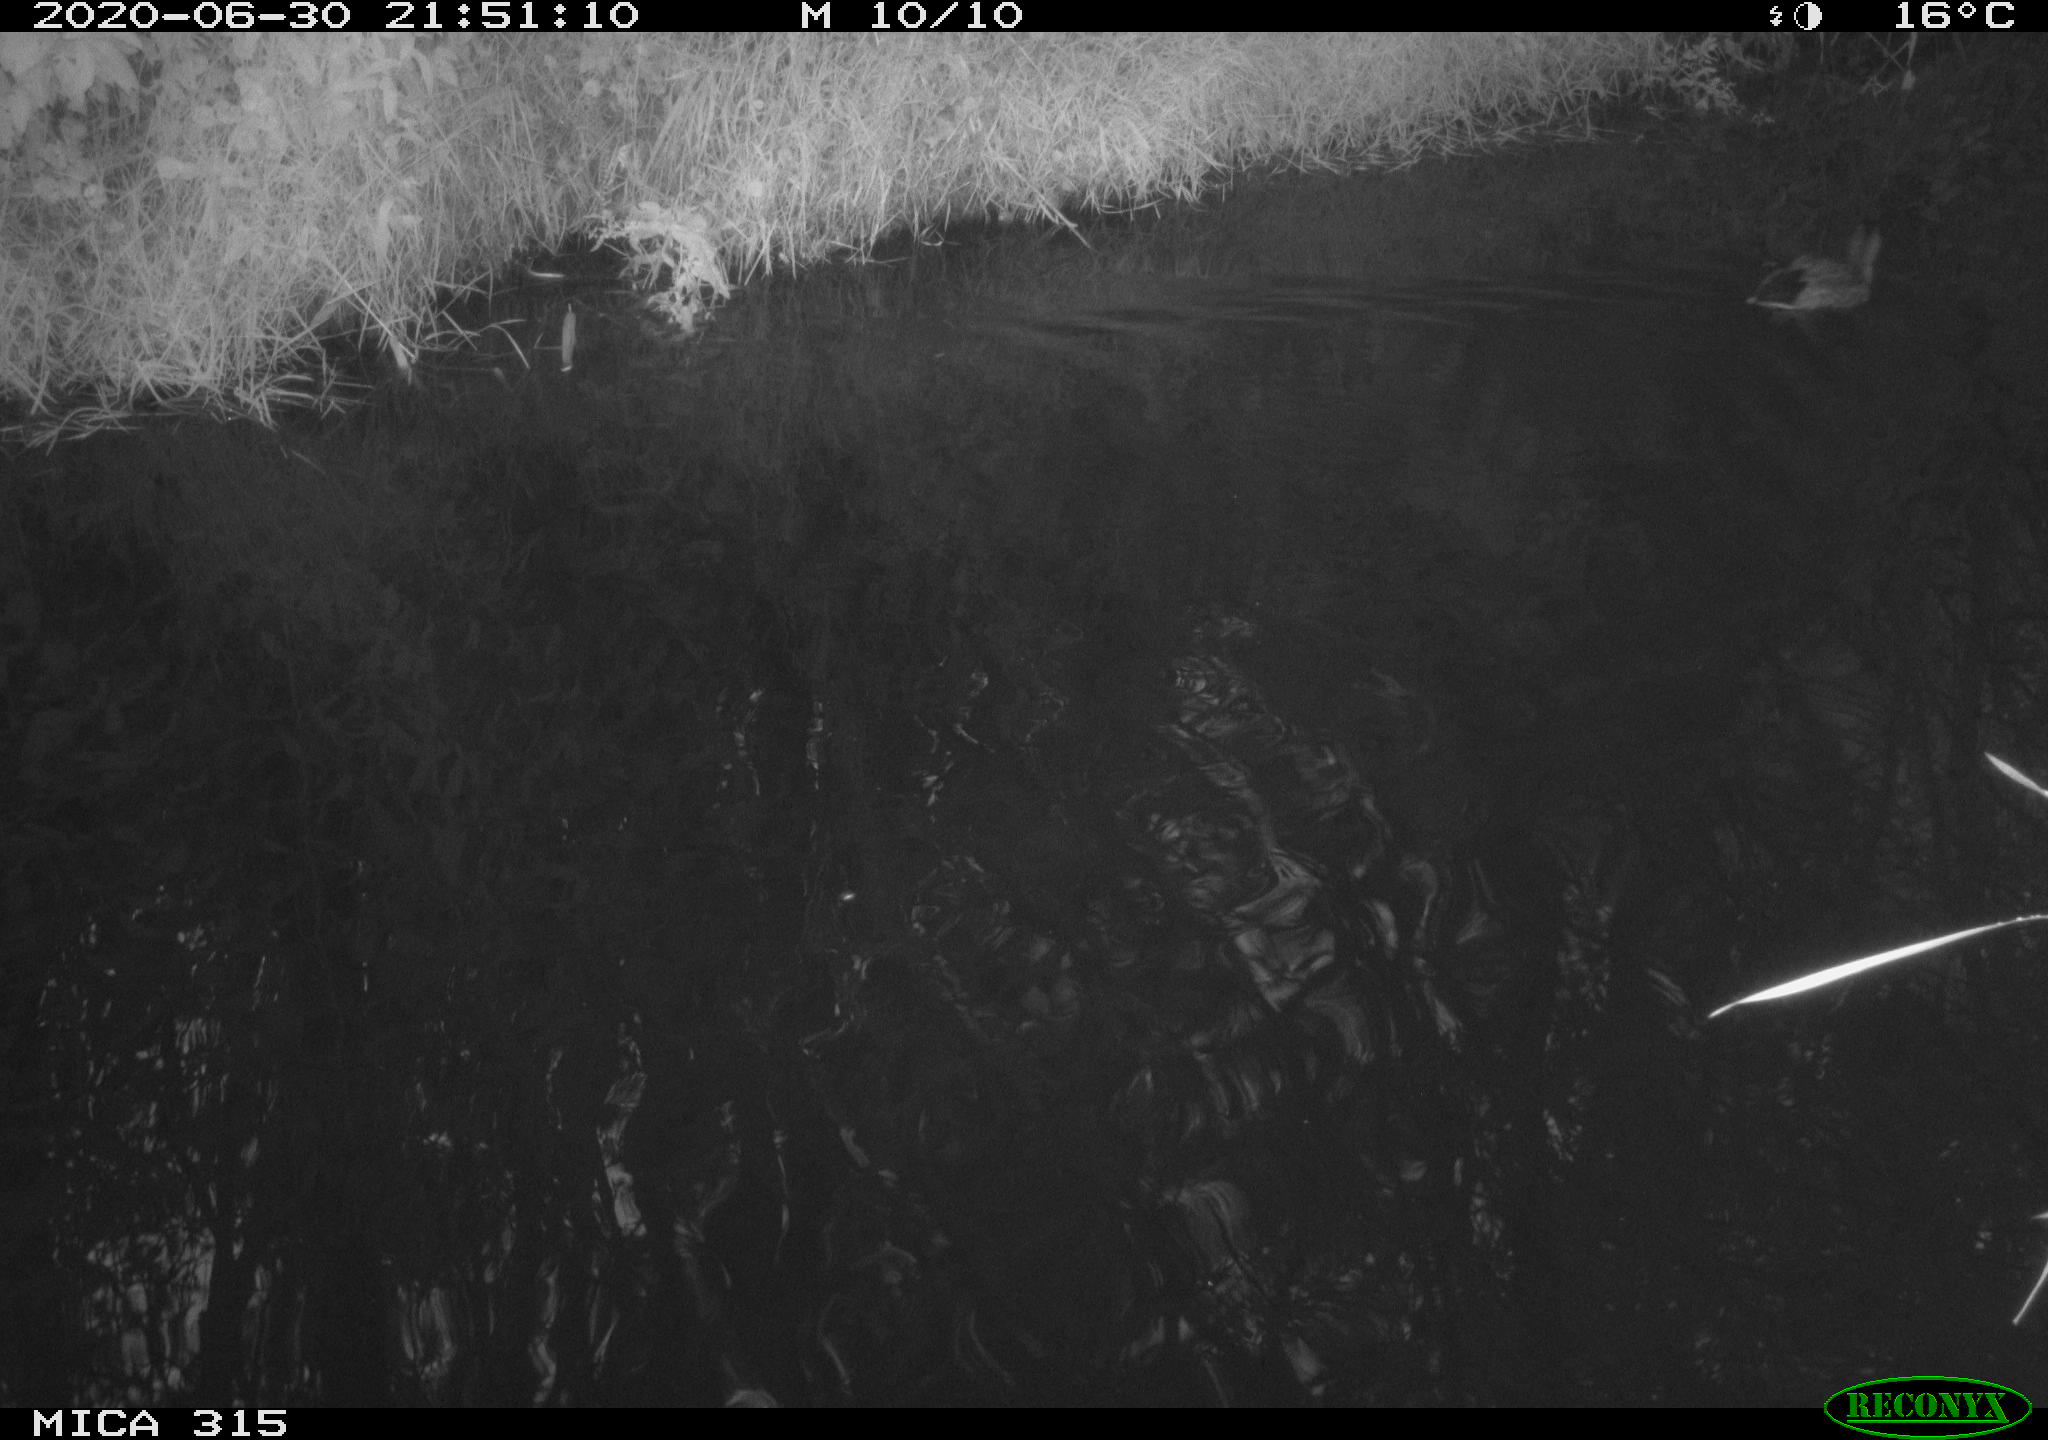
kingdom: Animalia
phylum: Chordata
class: Aves
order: Anseriformes
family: Anatidae
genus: Anas
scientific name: Anas platyrhynchos
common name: Mallard
